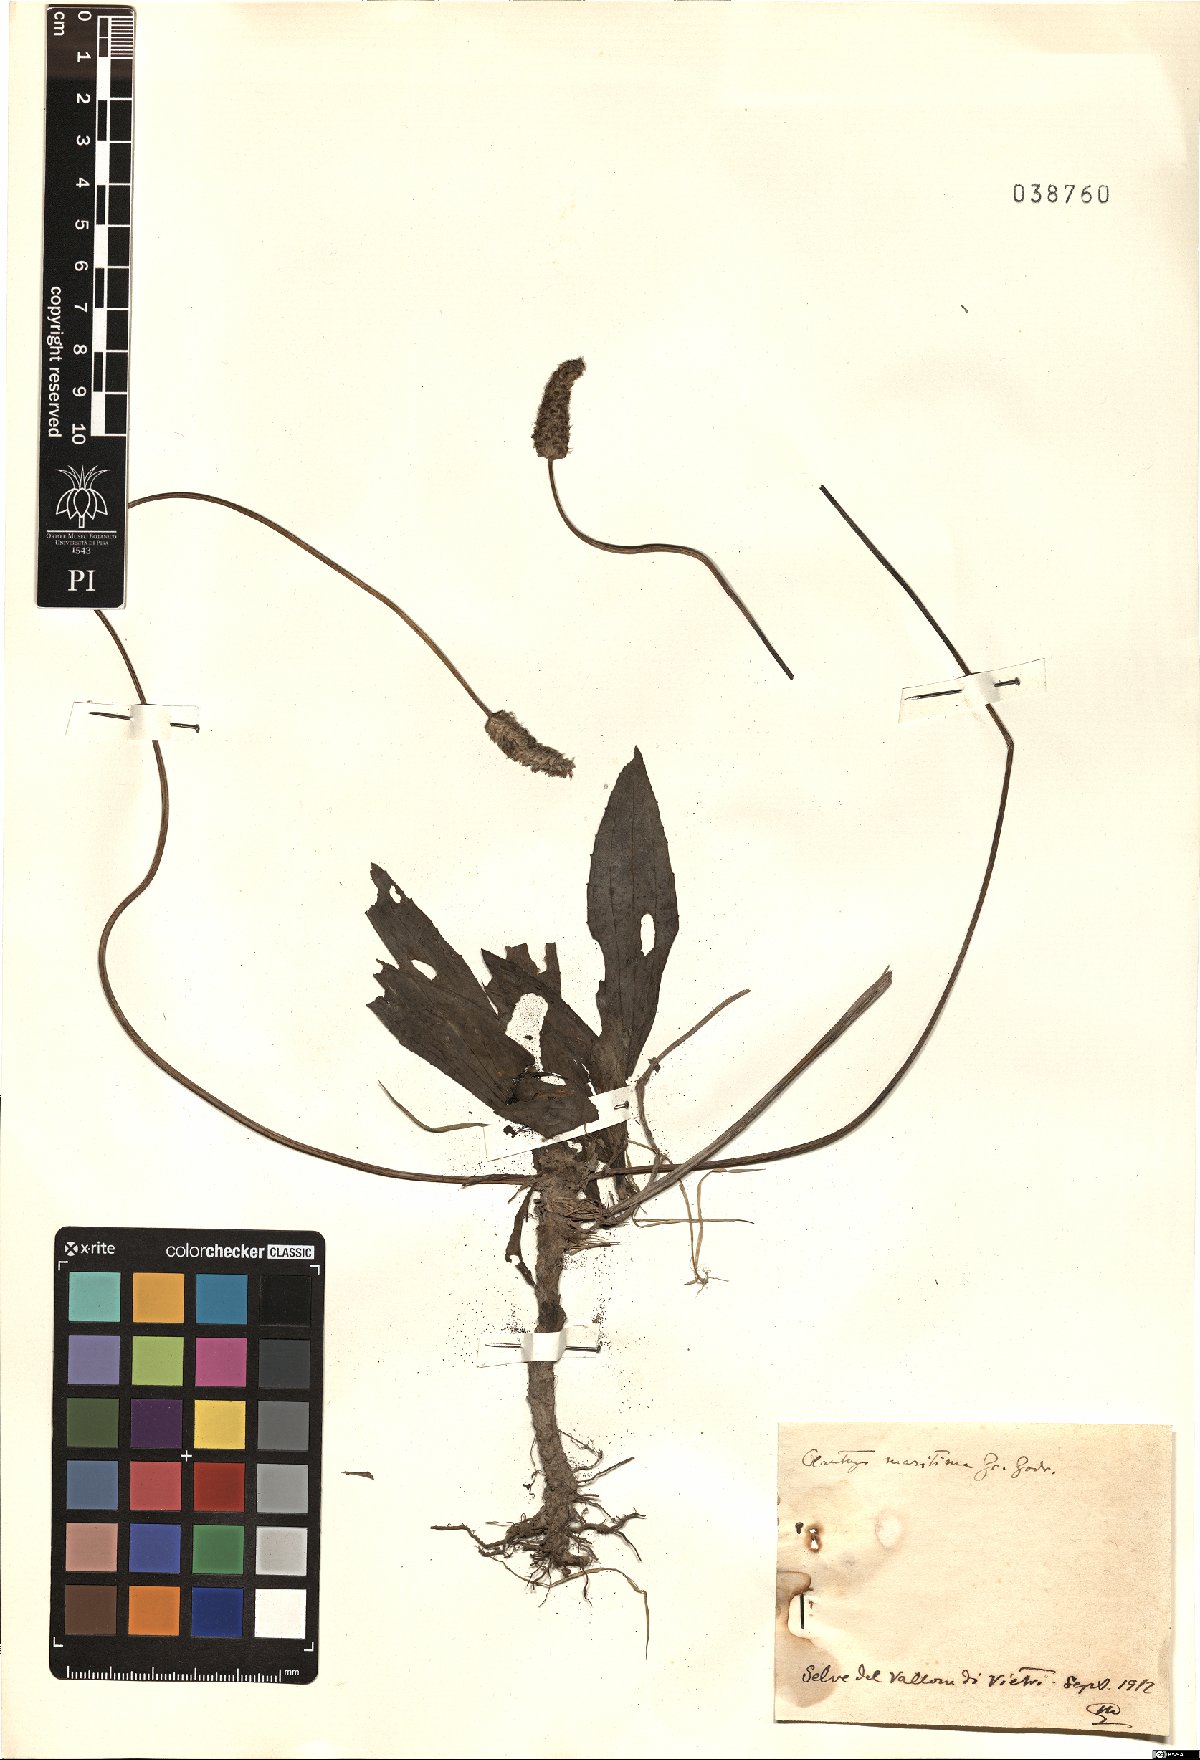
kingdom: Plantae
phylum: Tracheophyta
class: Magnoliopsida
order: Lamiales
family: Plantaginaceae
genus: Plantago
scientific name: Plantago maritima
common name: Sea plantain
